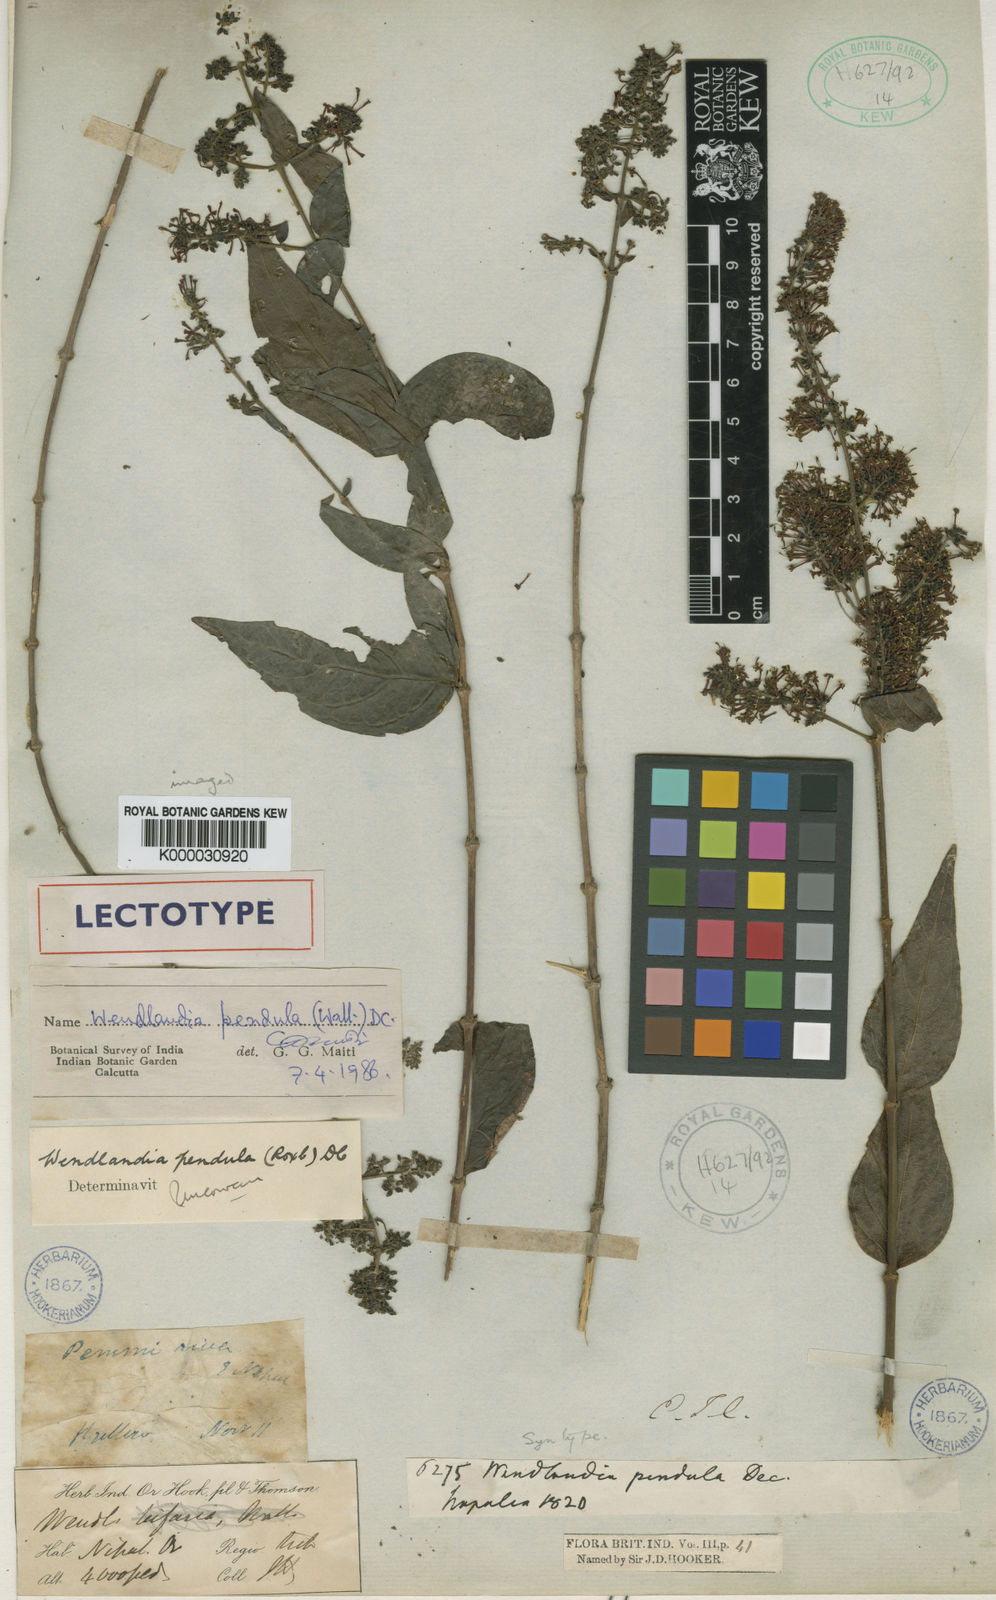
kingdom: Plantae
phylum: Tracheophyta
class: Magnoliopsida
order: Gentianales
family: Rubiaceae
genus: Wendlandia
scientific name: Wendlandia pendula
